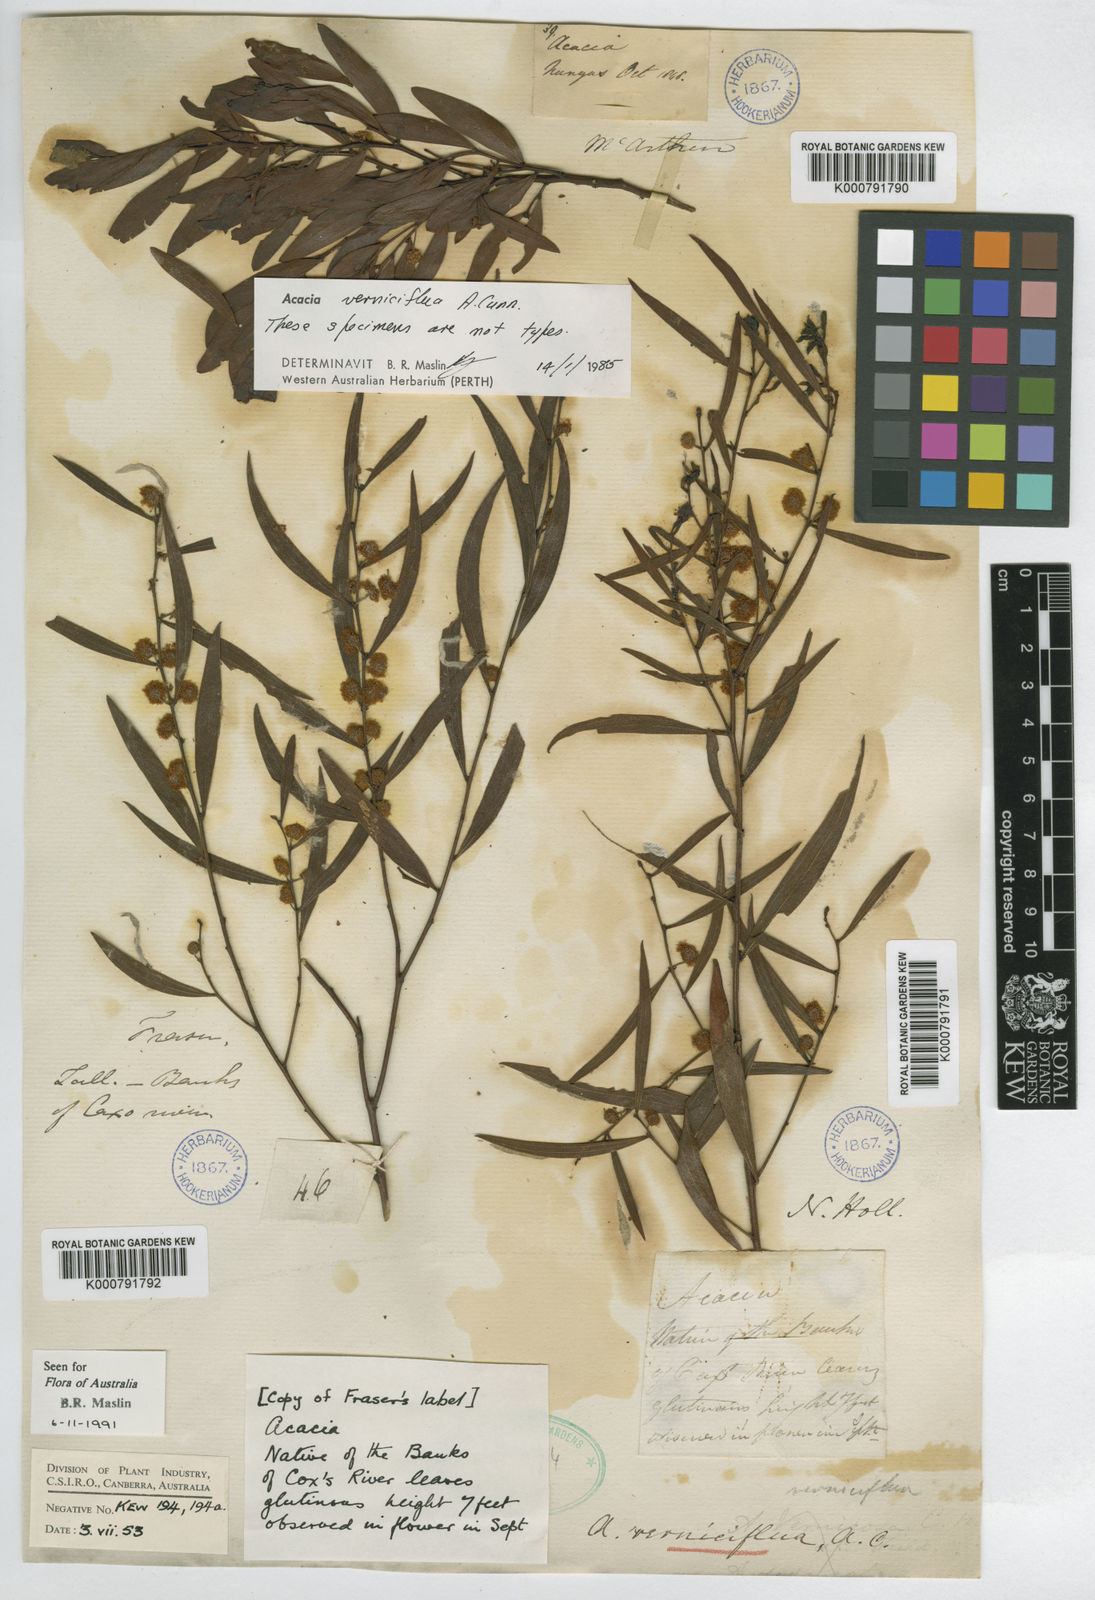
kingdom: Plantae
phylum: Tracheophyta
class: Magnoliopsida
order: Fabales
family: Fabaceae
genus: Acacia
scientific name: Acacia verniciflua
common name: Varnish wattle
